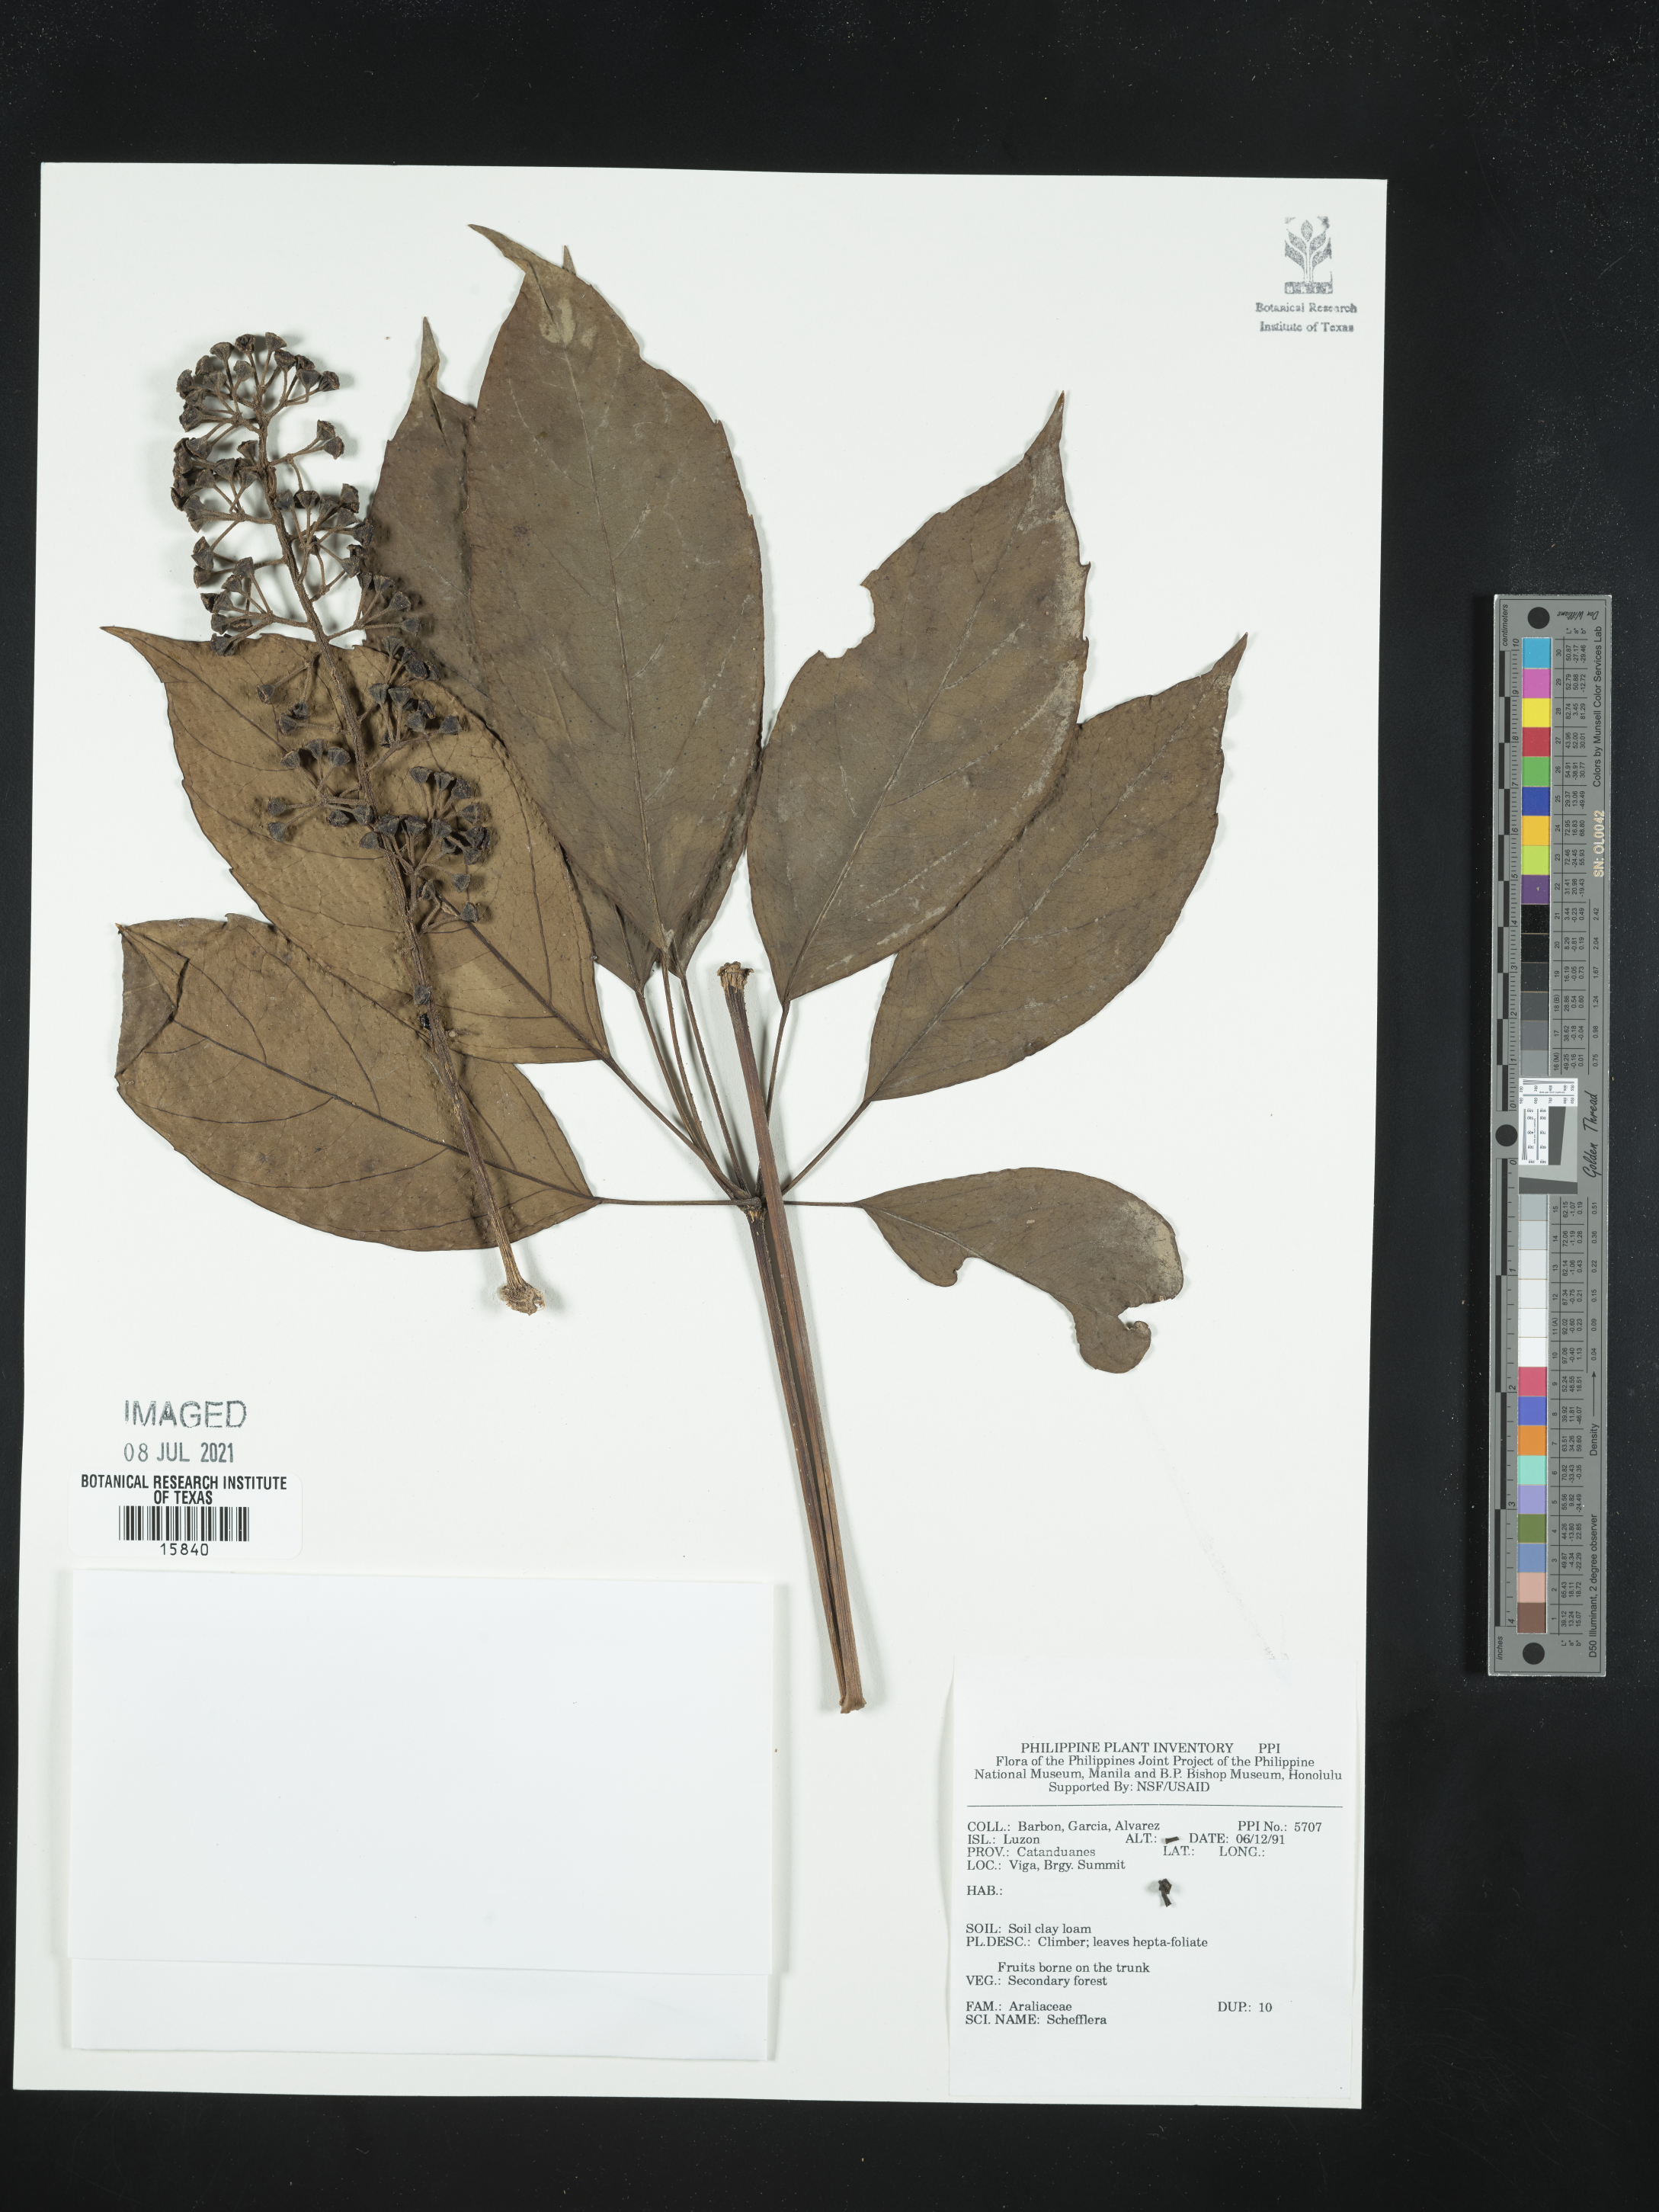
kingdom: Plantae
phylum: Tracheophyta
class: Magnoliopsida
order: Apiales
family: Araliaceae
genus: Schefflera
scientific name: Schefflera
